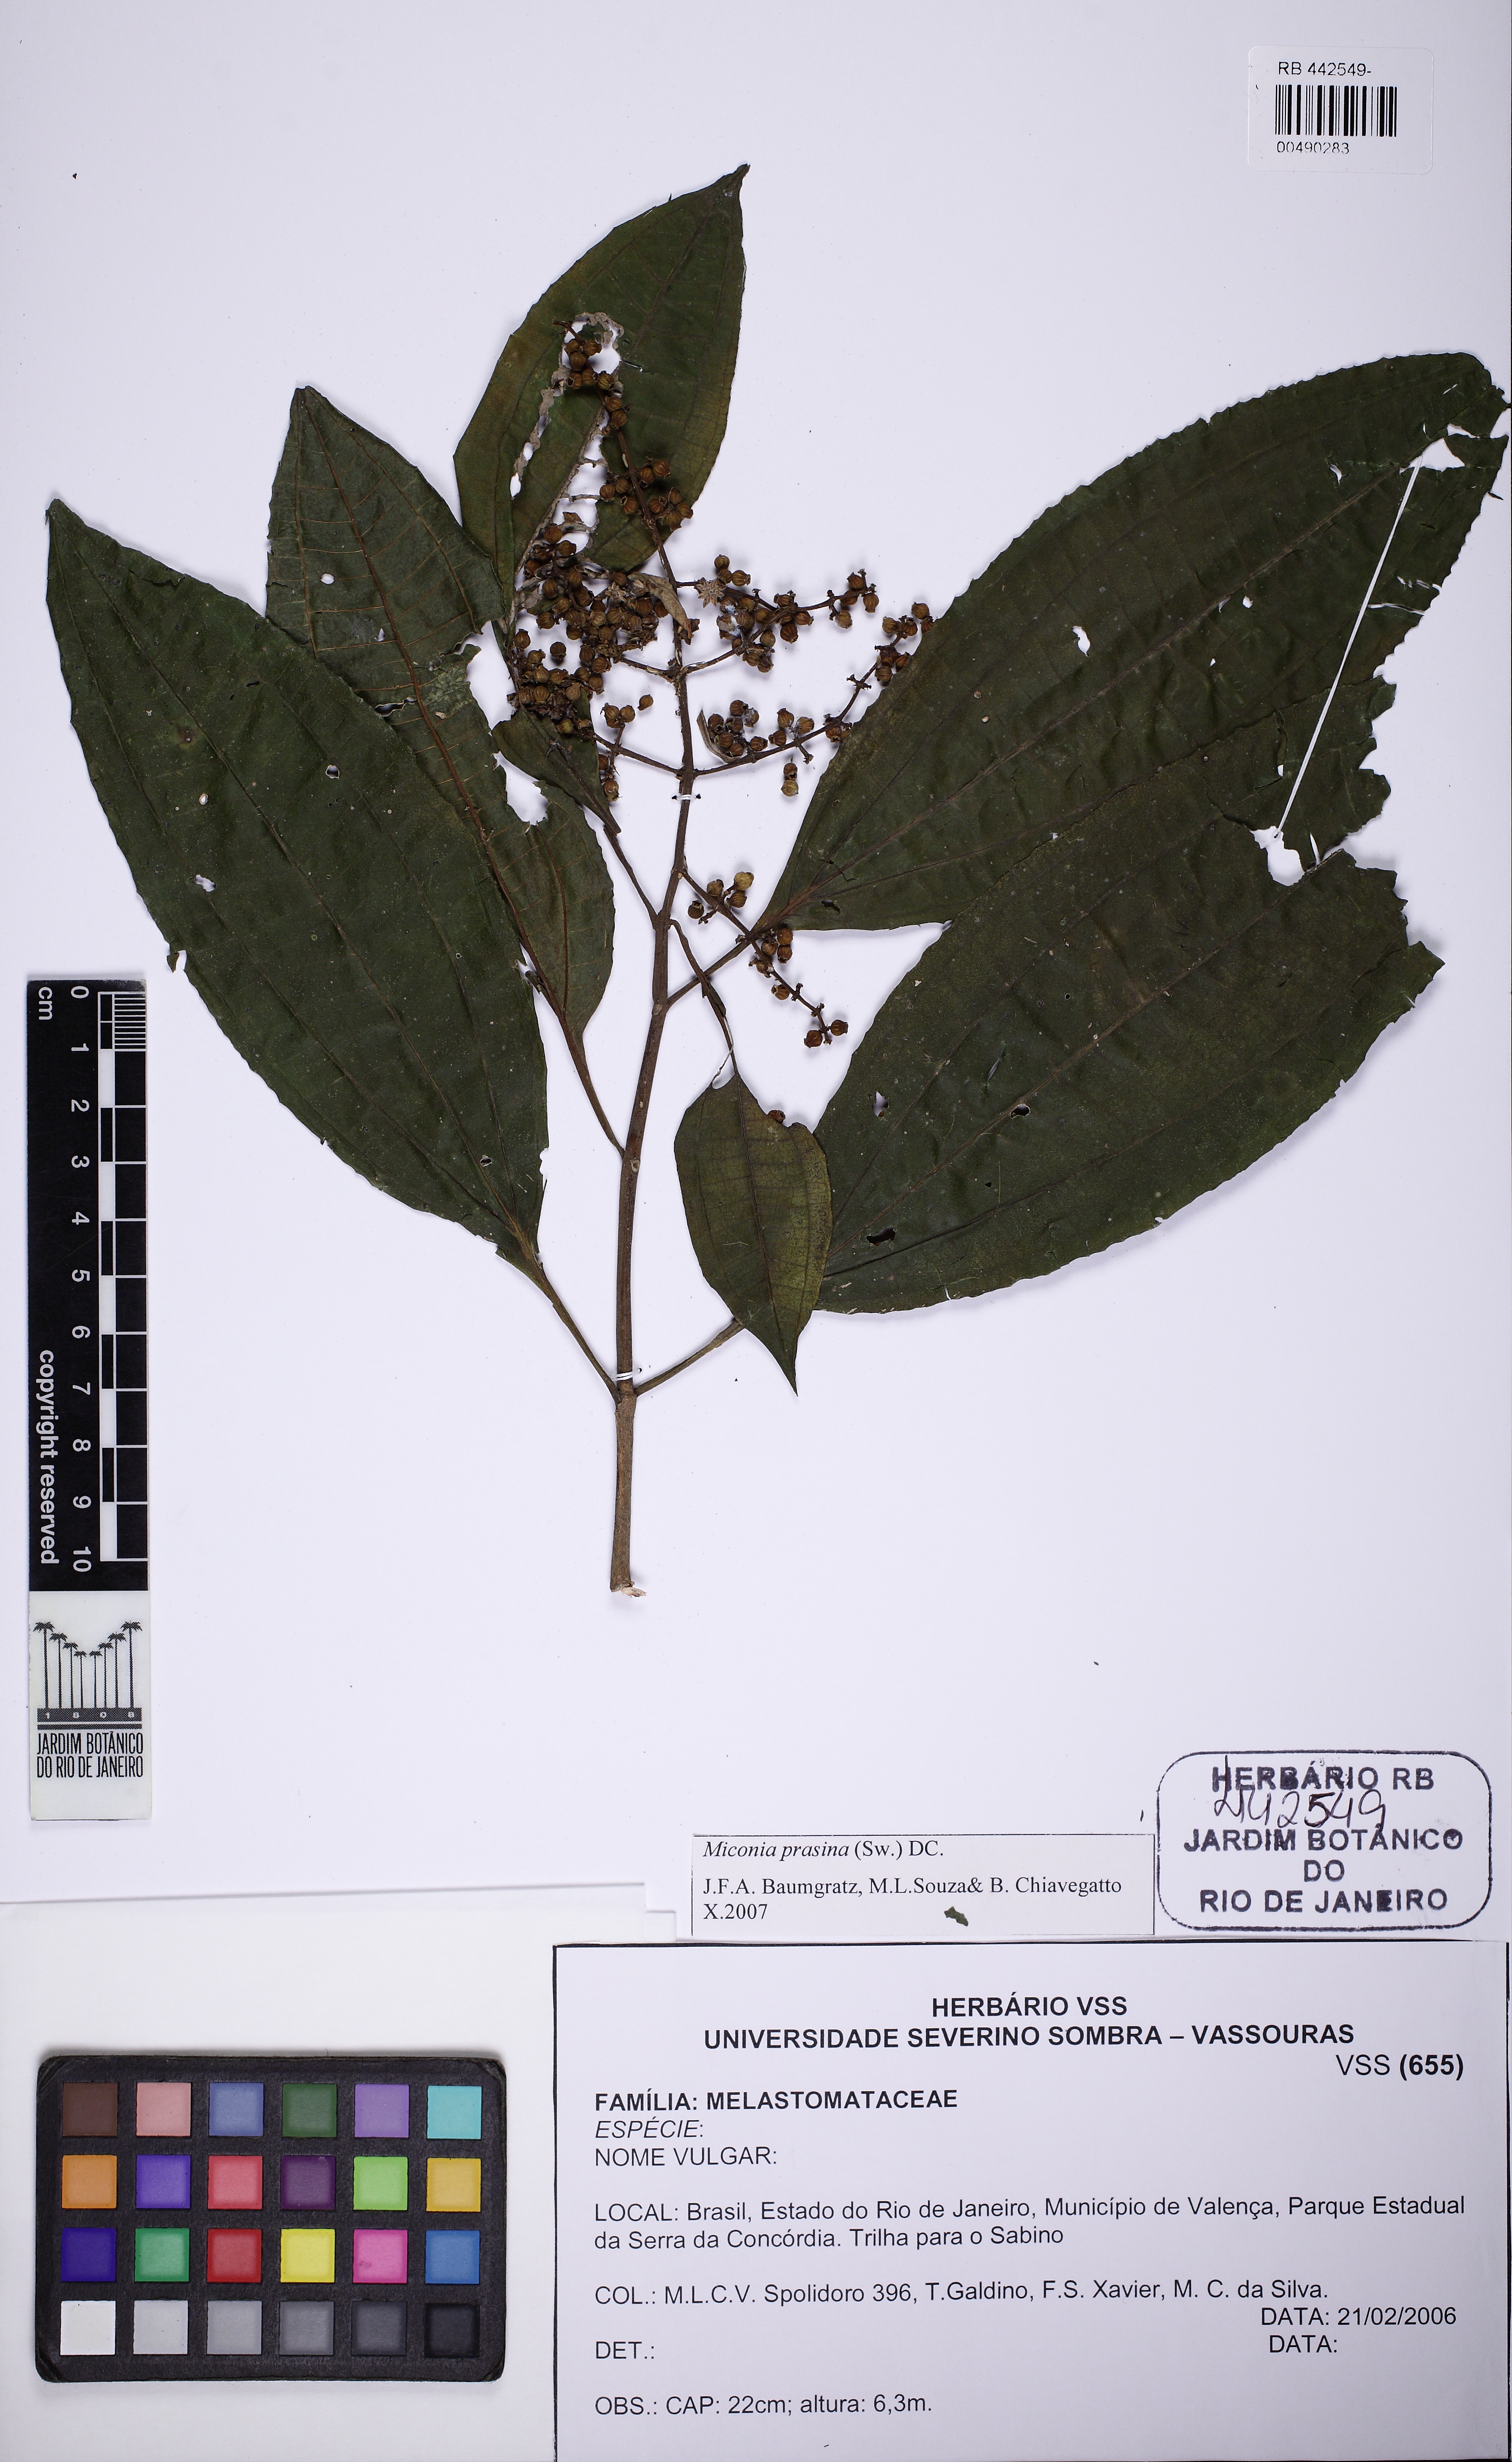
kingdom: Plantae
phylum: Tracheophyta
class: Magnoliopsida
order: Myrtales
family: Melastomataceae
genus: Miconia
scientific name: Miconia prasina
